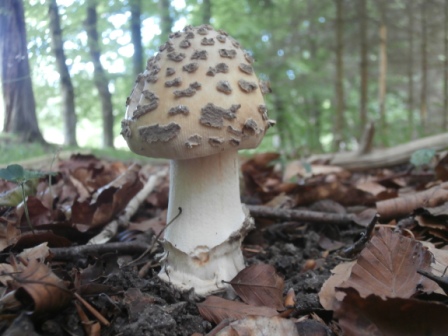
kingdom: Fungi
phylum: Basidiomycota
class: Agaricomycetes
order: Agaricales
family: Amanitaceae
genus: Amanita
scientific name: Amanita ceciliae
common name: stor kam-fluesvamp
